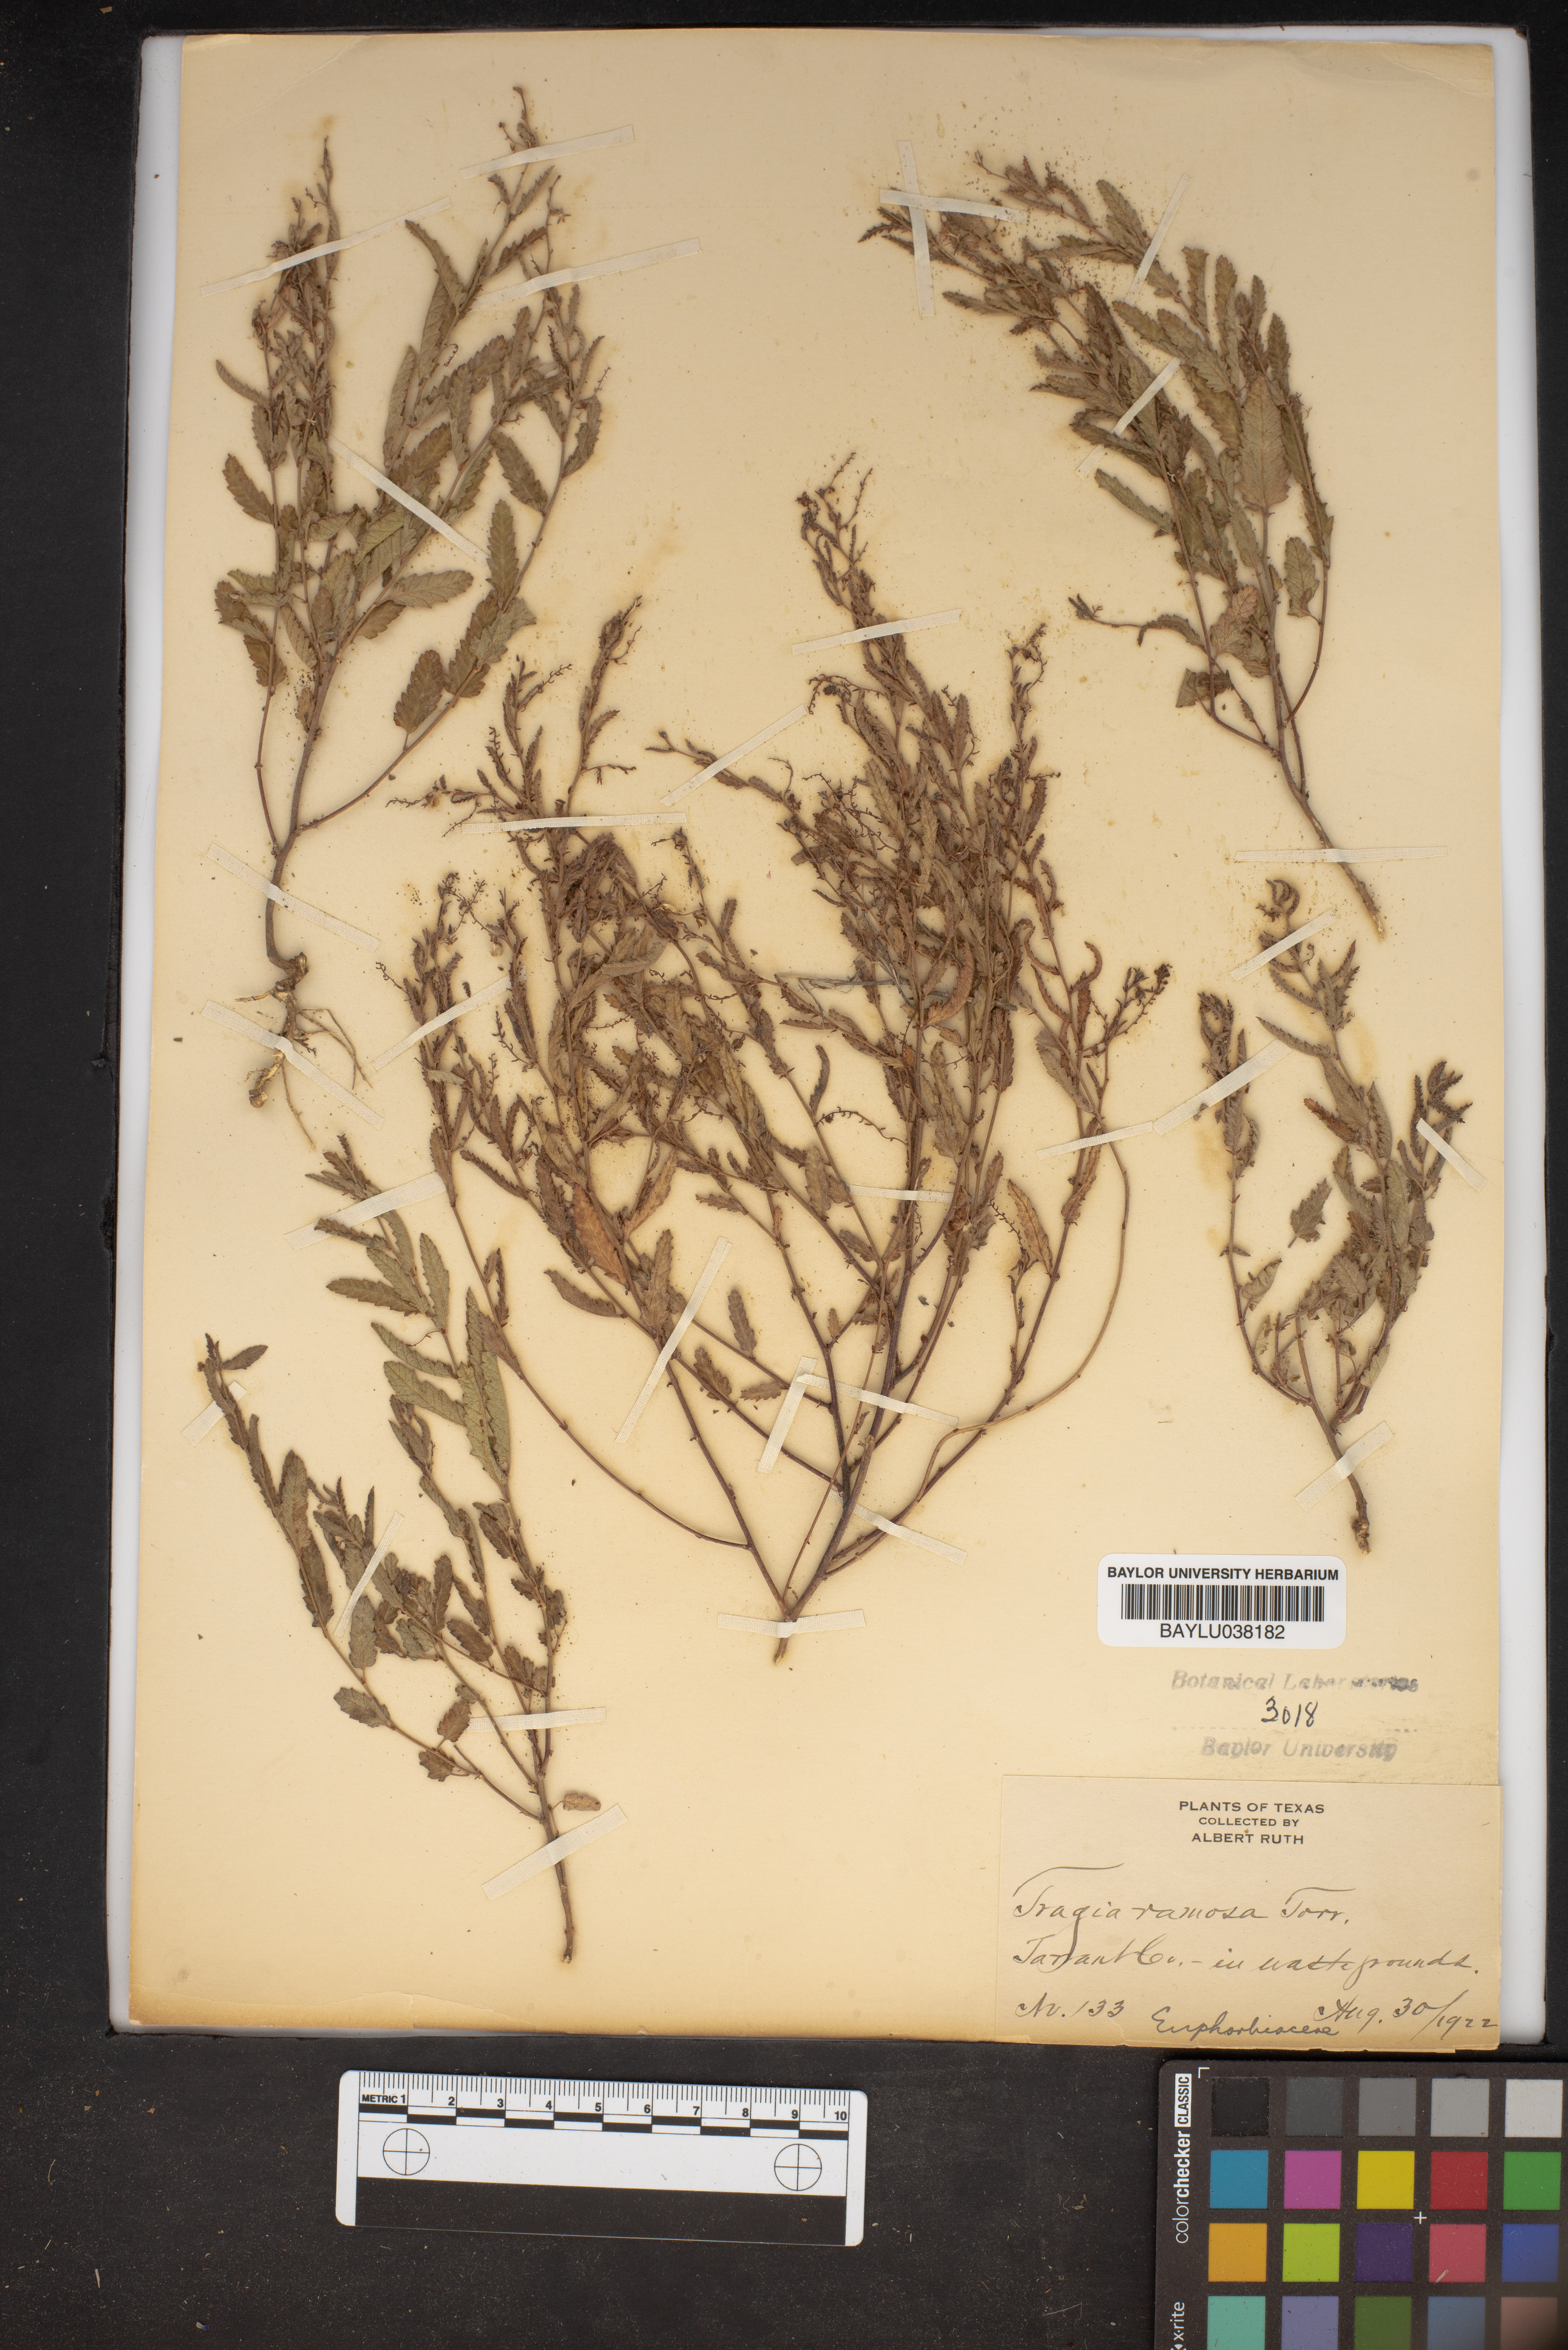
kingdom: Plantae
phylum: Tracheophyta
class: Magnoliopsida
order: Malpighiales
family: Euphorbiaceae
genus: Tragia
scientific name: Tragia ramosa
